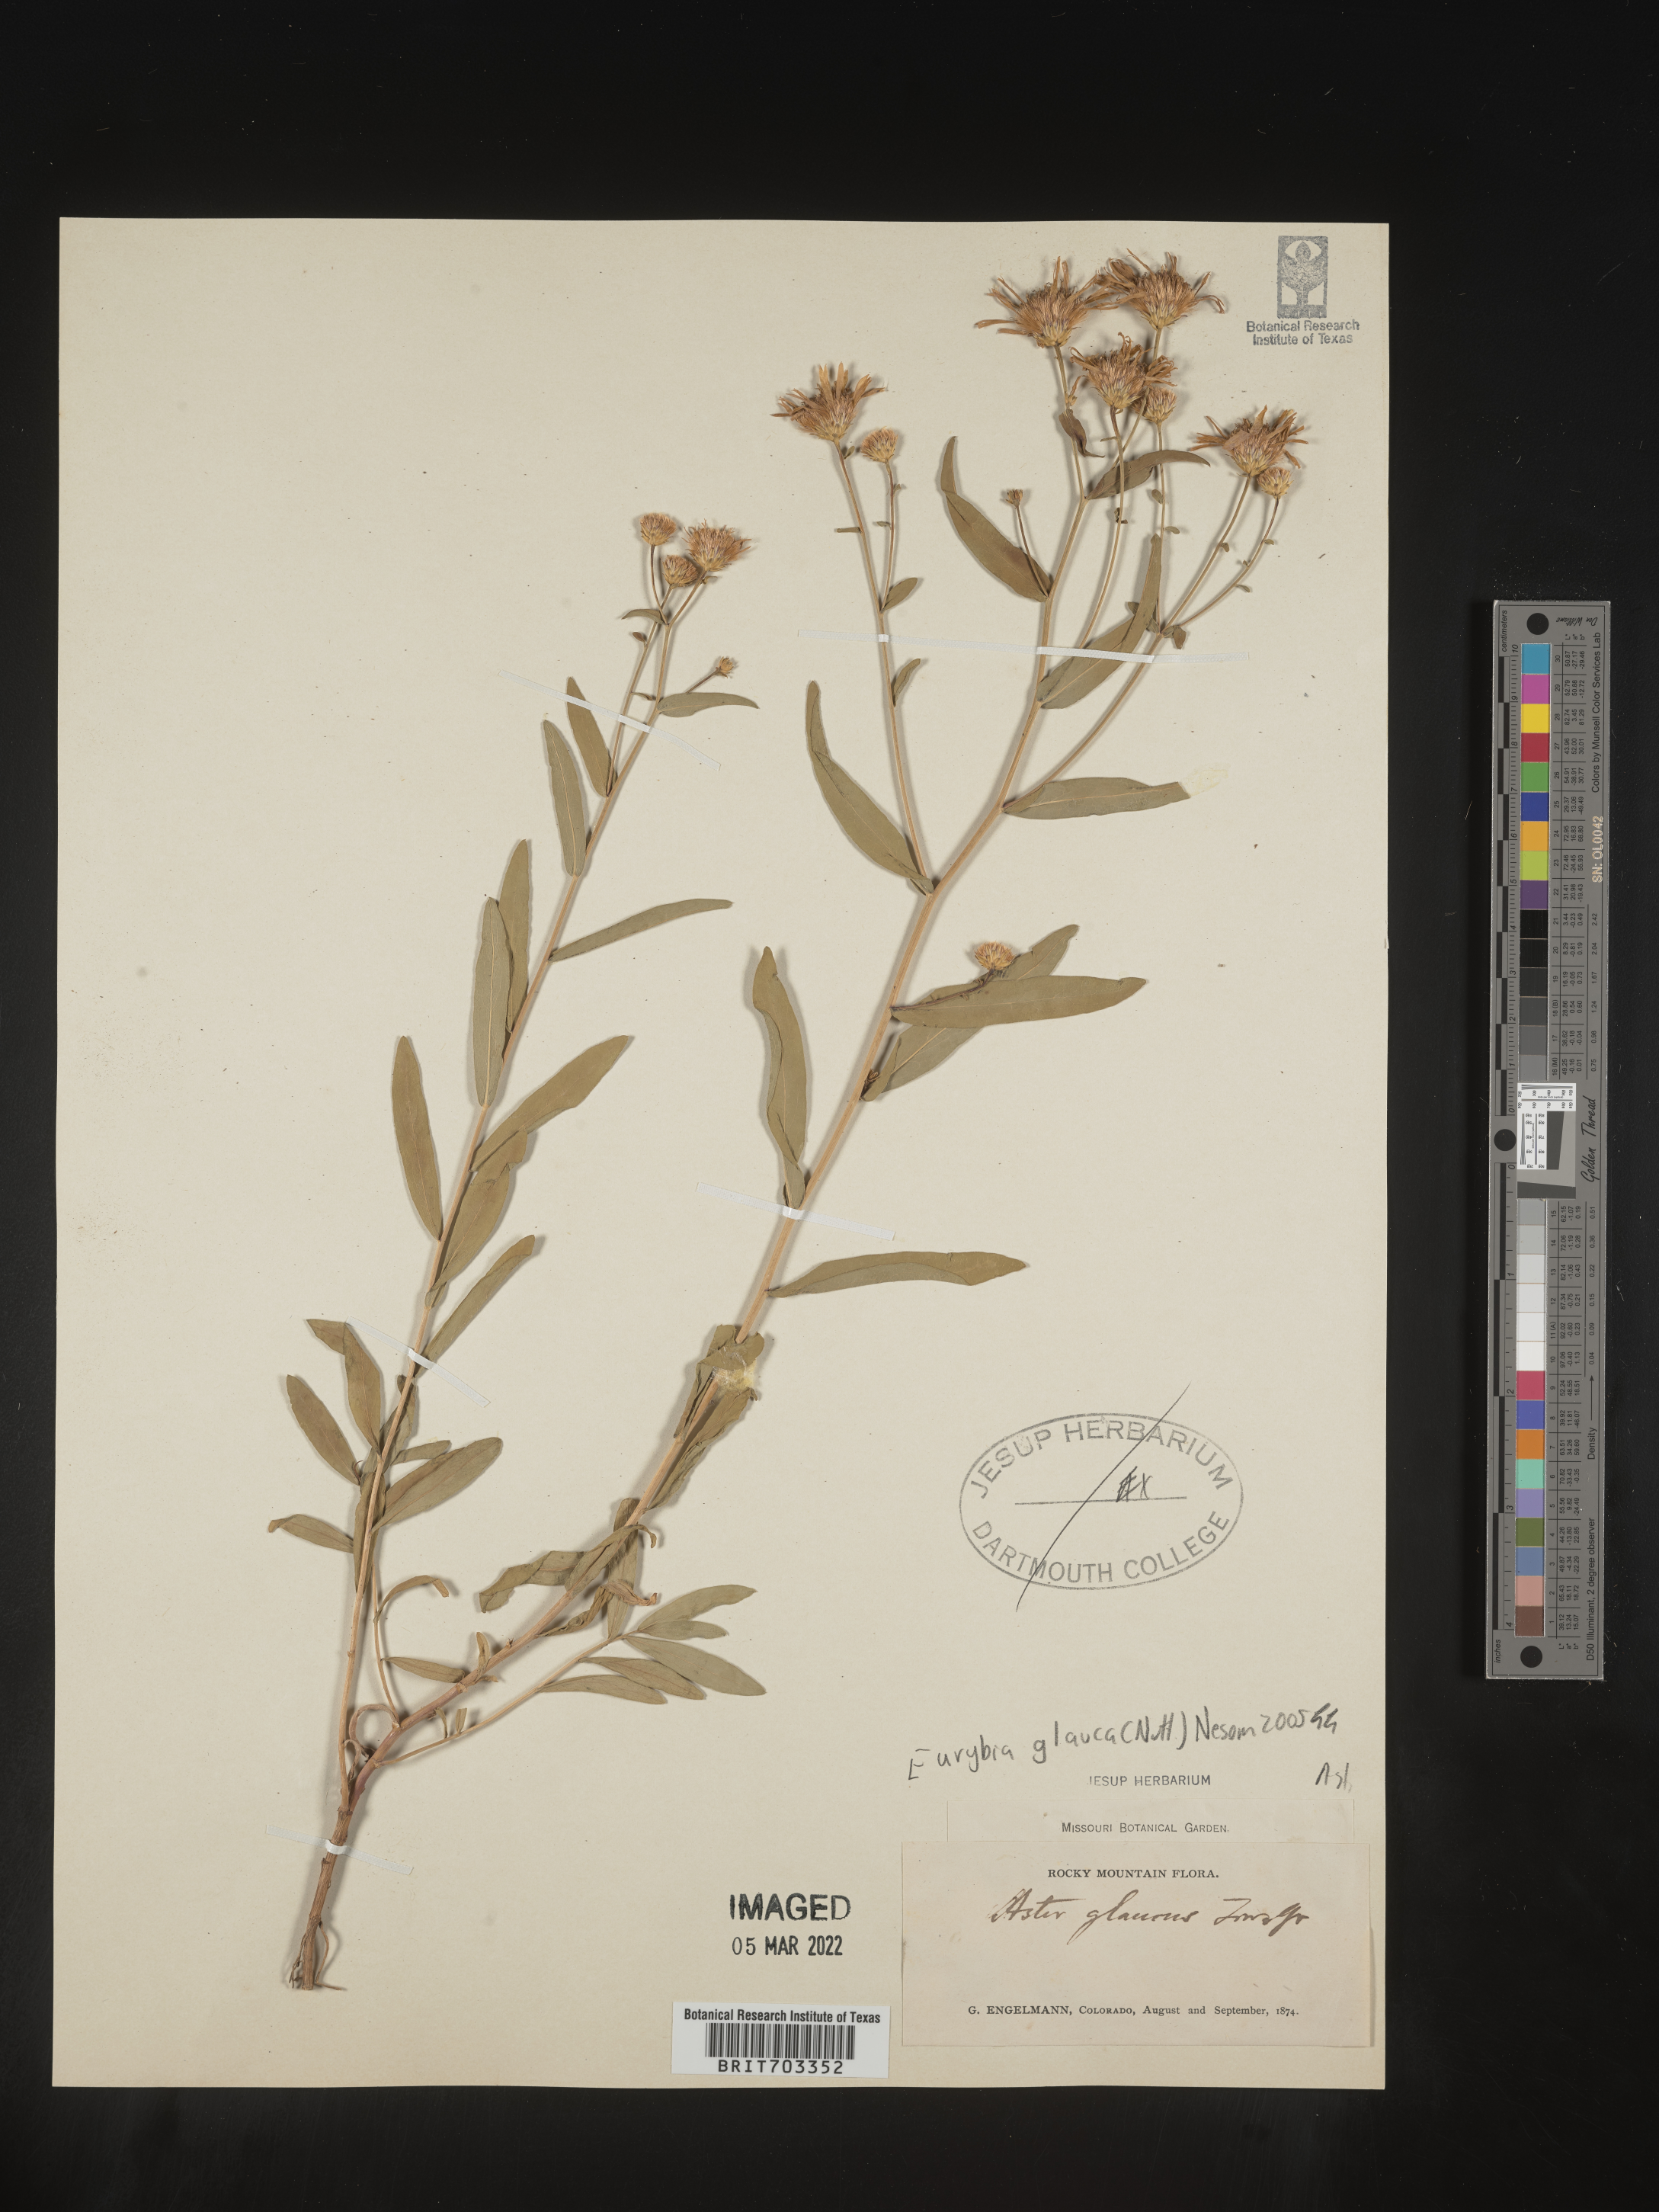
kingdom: Plantae
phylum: Tracheophyta
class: Magnoliopsida
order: Asterales
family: Asteraceae
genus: Eurybia
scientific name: Eurybia glauca
